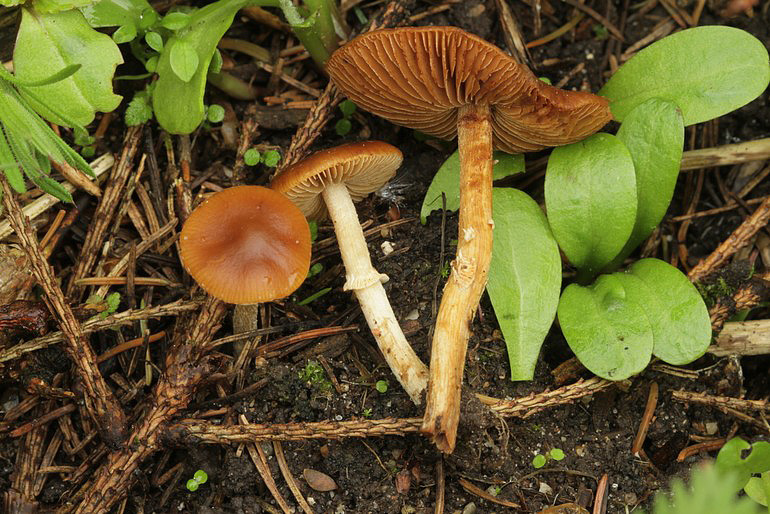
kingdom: Fungi
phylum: Basidiomycota
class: Agaricomycetes
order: Agaricales
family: Bolbitiaceae
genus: Conocybe
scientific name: Conocybe aporos
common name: tidlig dansehat
